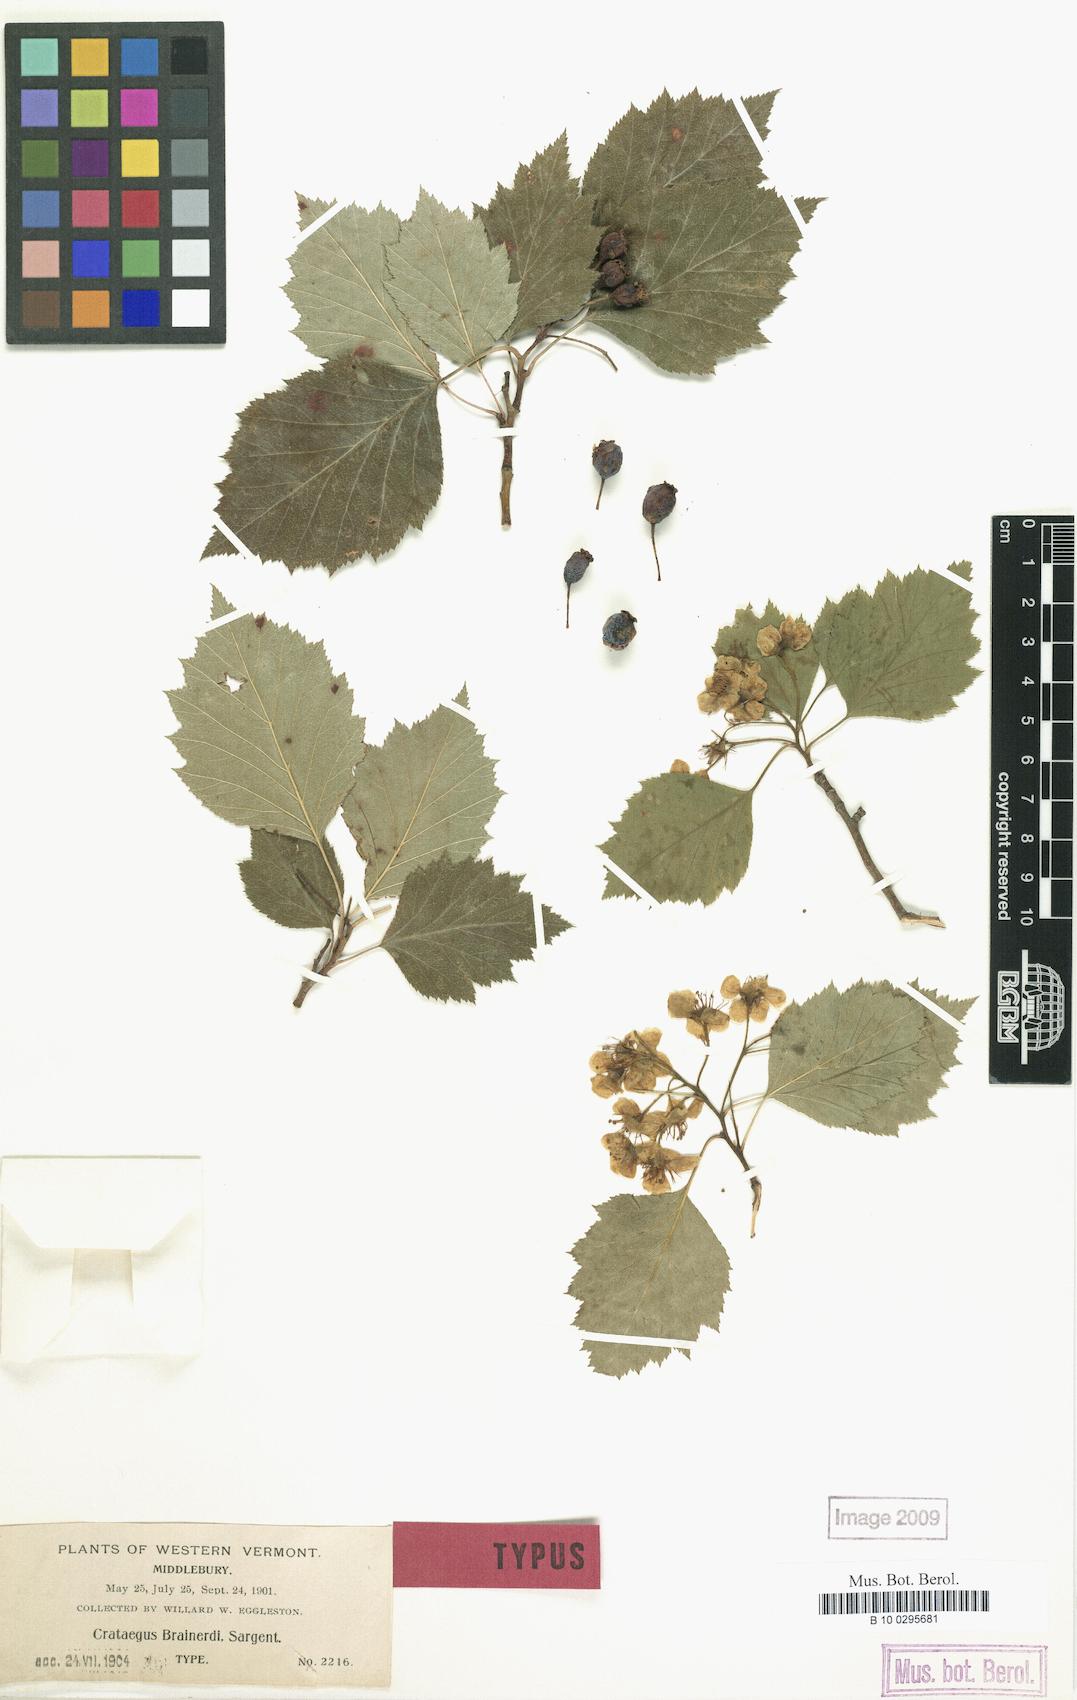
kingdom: Plantae
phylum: Tracheophyta
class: Magnoliopsida
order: Rosales
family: Rosaceae
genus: Crataegus
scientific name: Crataegus scabrida
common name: Rough hawthorn
